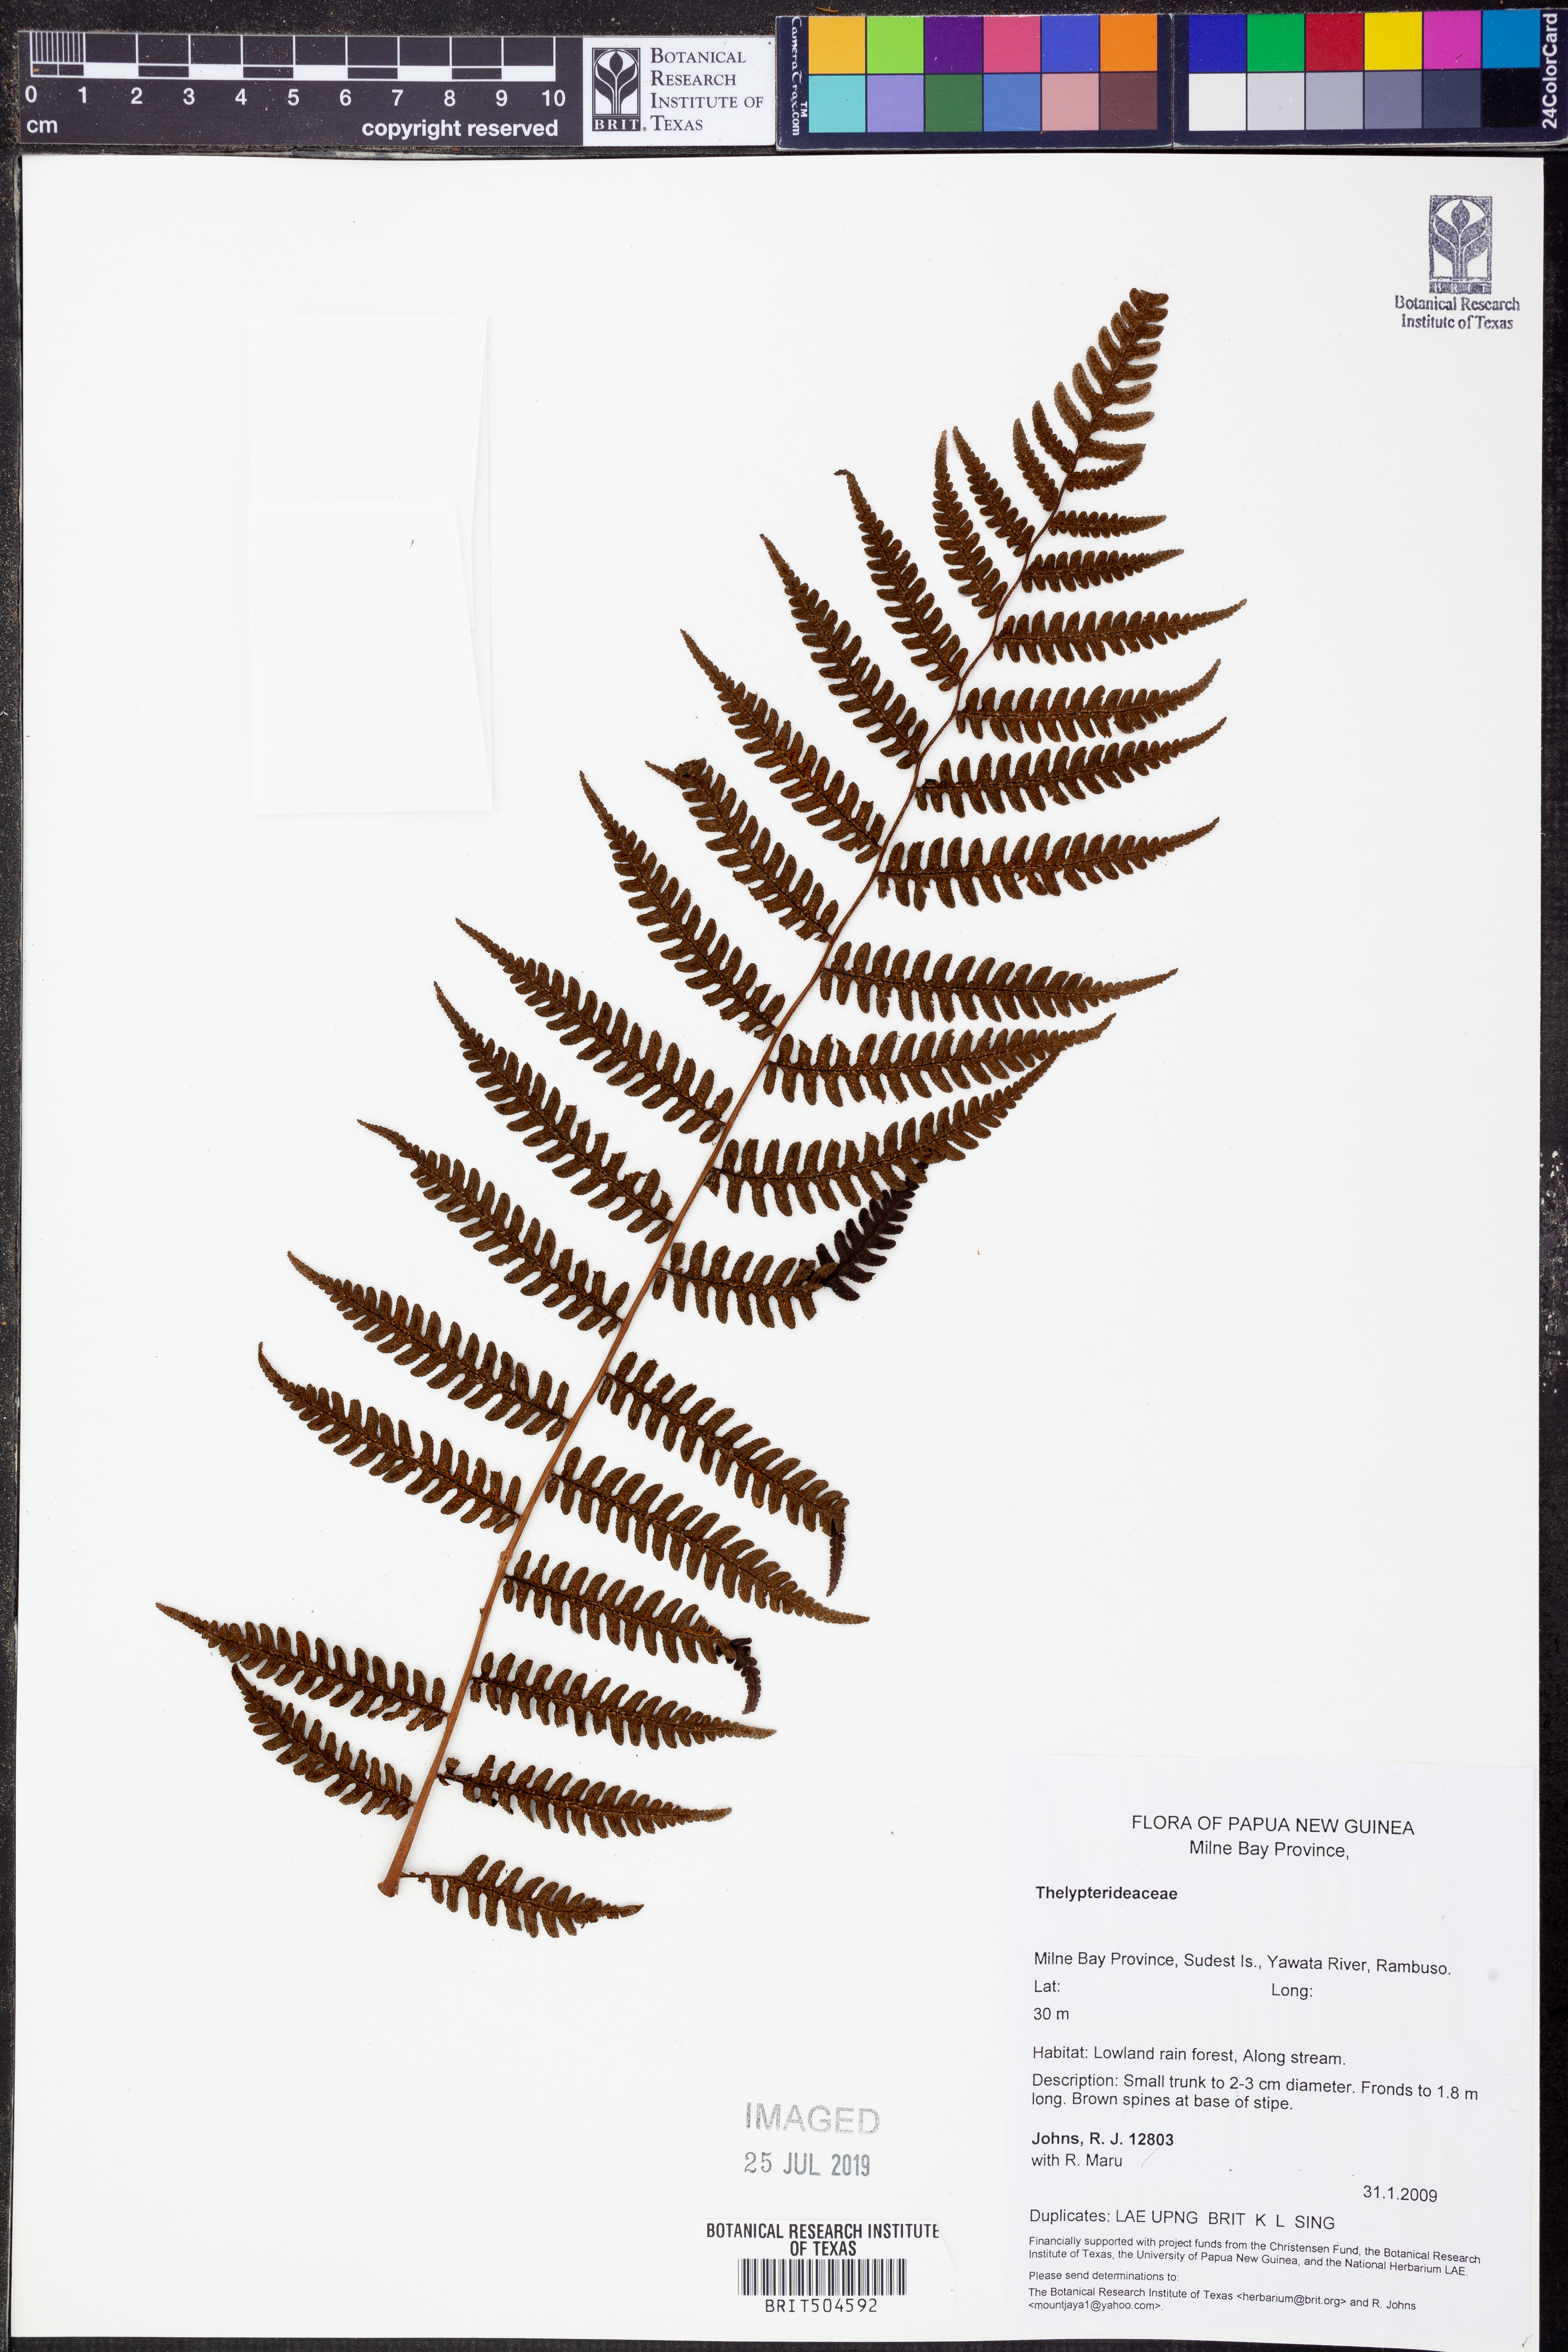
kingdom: Plantae
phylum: Tracheophyta
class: Polypodiopsida
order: Polypodiales
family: Thelypteridaceae
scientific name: Thelypteridaceae
